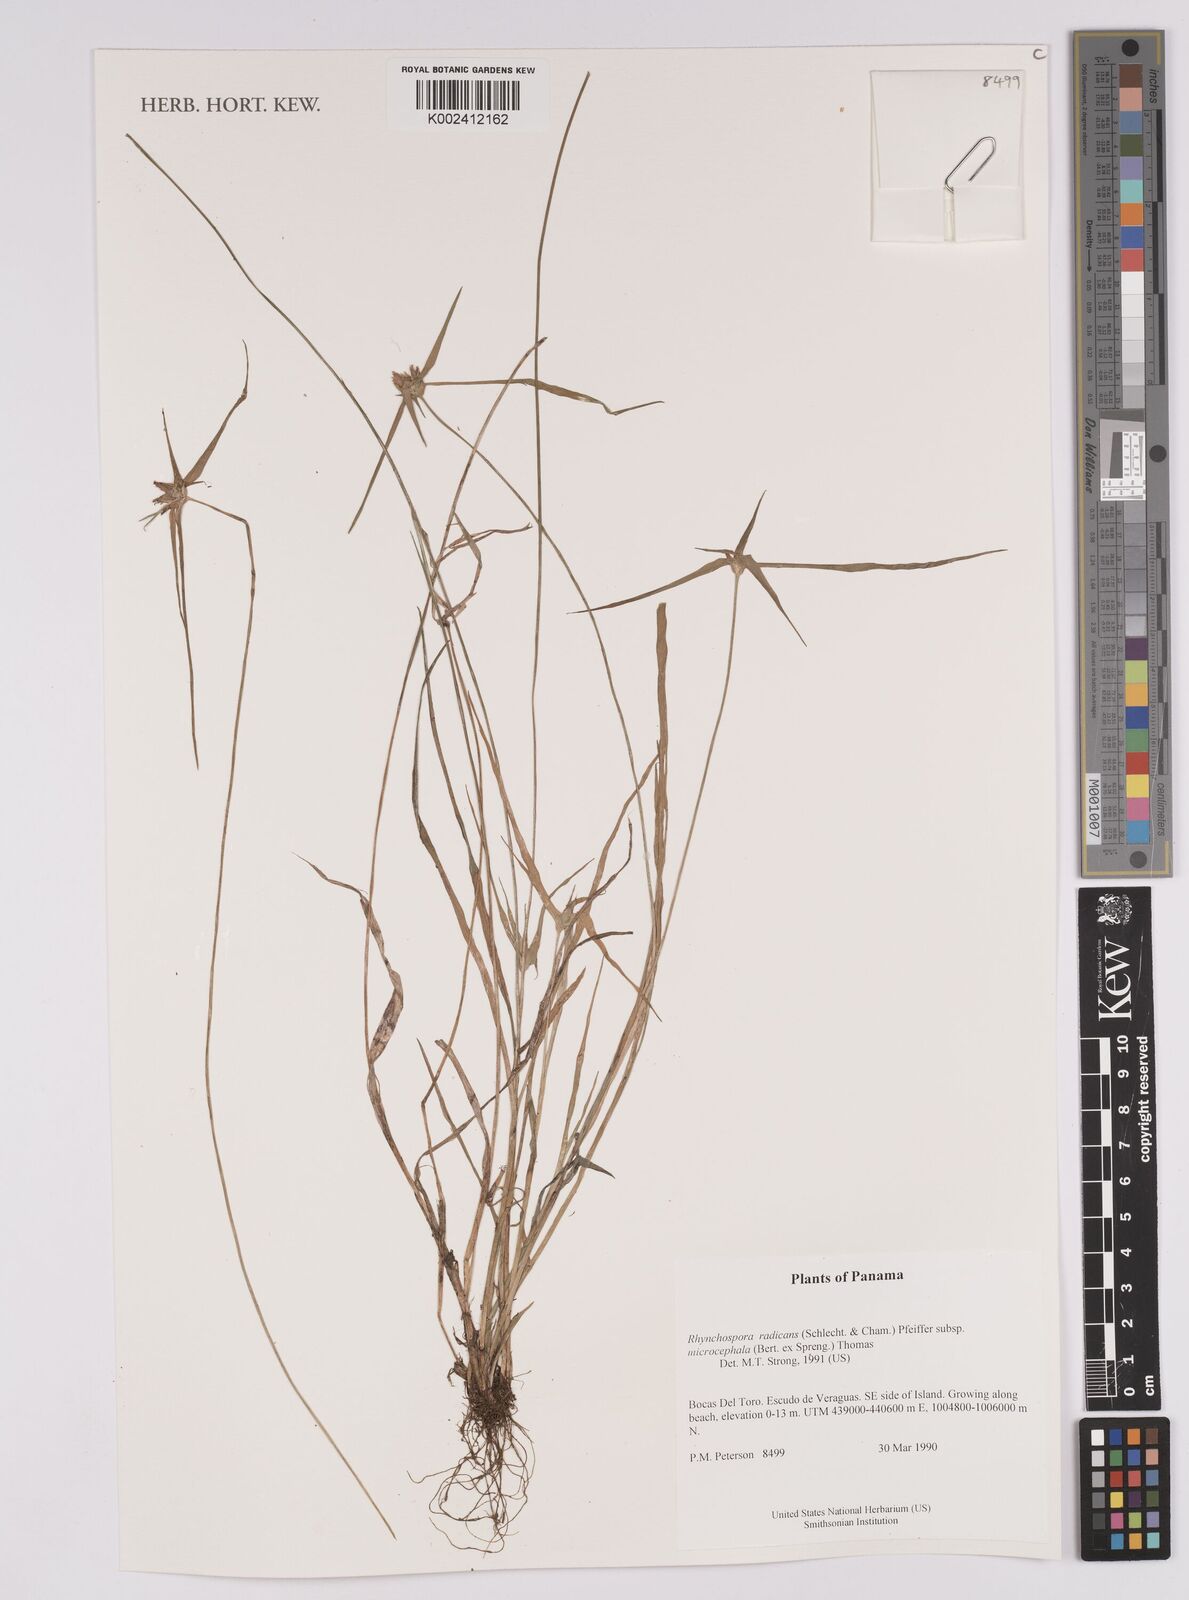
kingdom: Plantae
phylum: Tracheophyta
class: Liliopsida
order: Poales
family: Cyperaceae
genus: Rhynchospora
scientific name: Rhynchospora radicans
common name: Tropical whitetop
